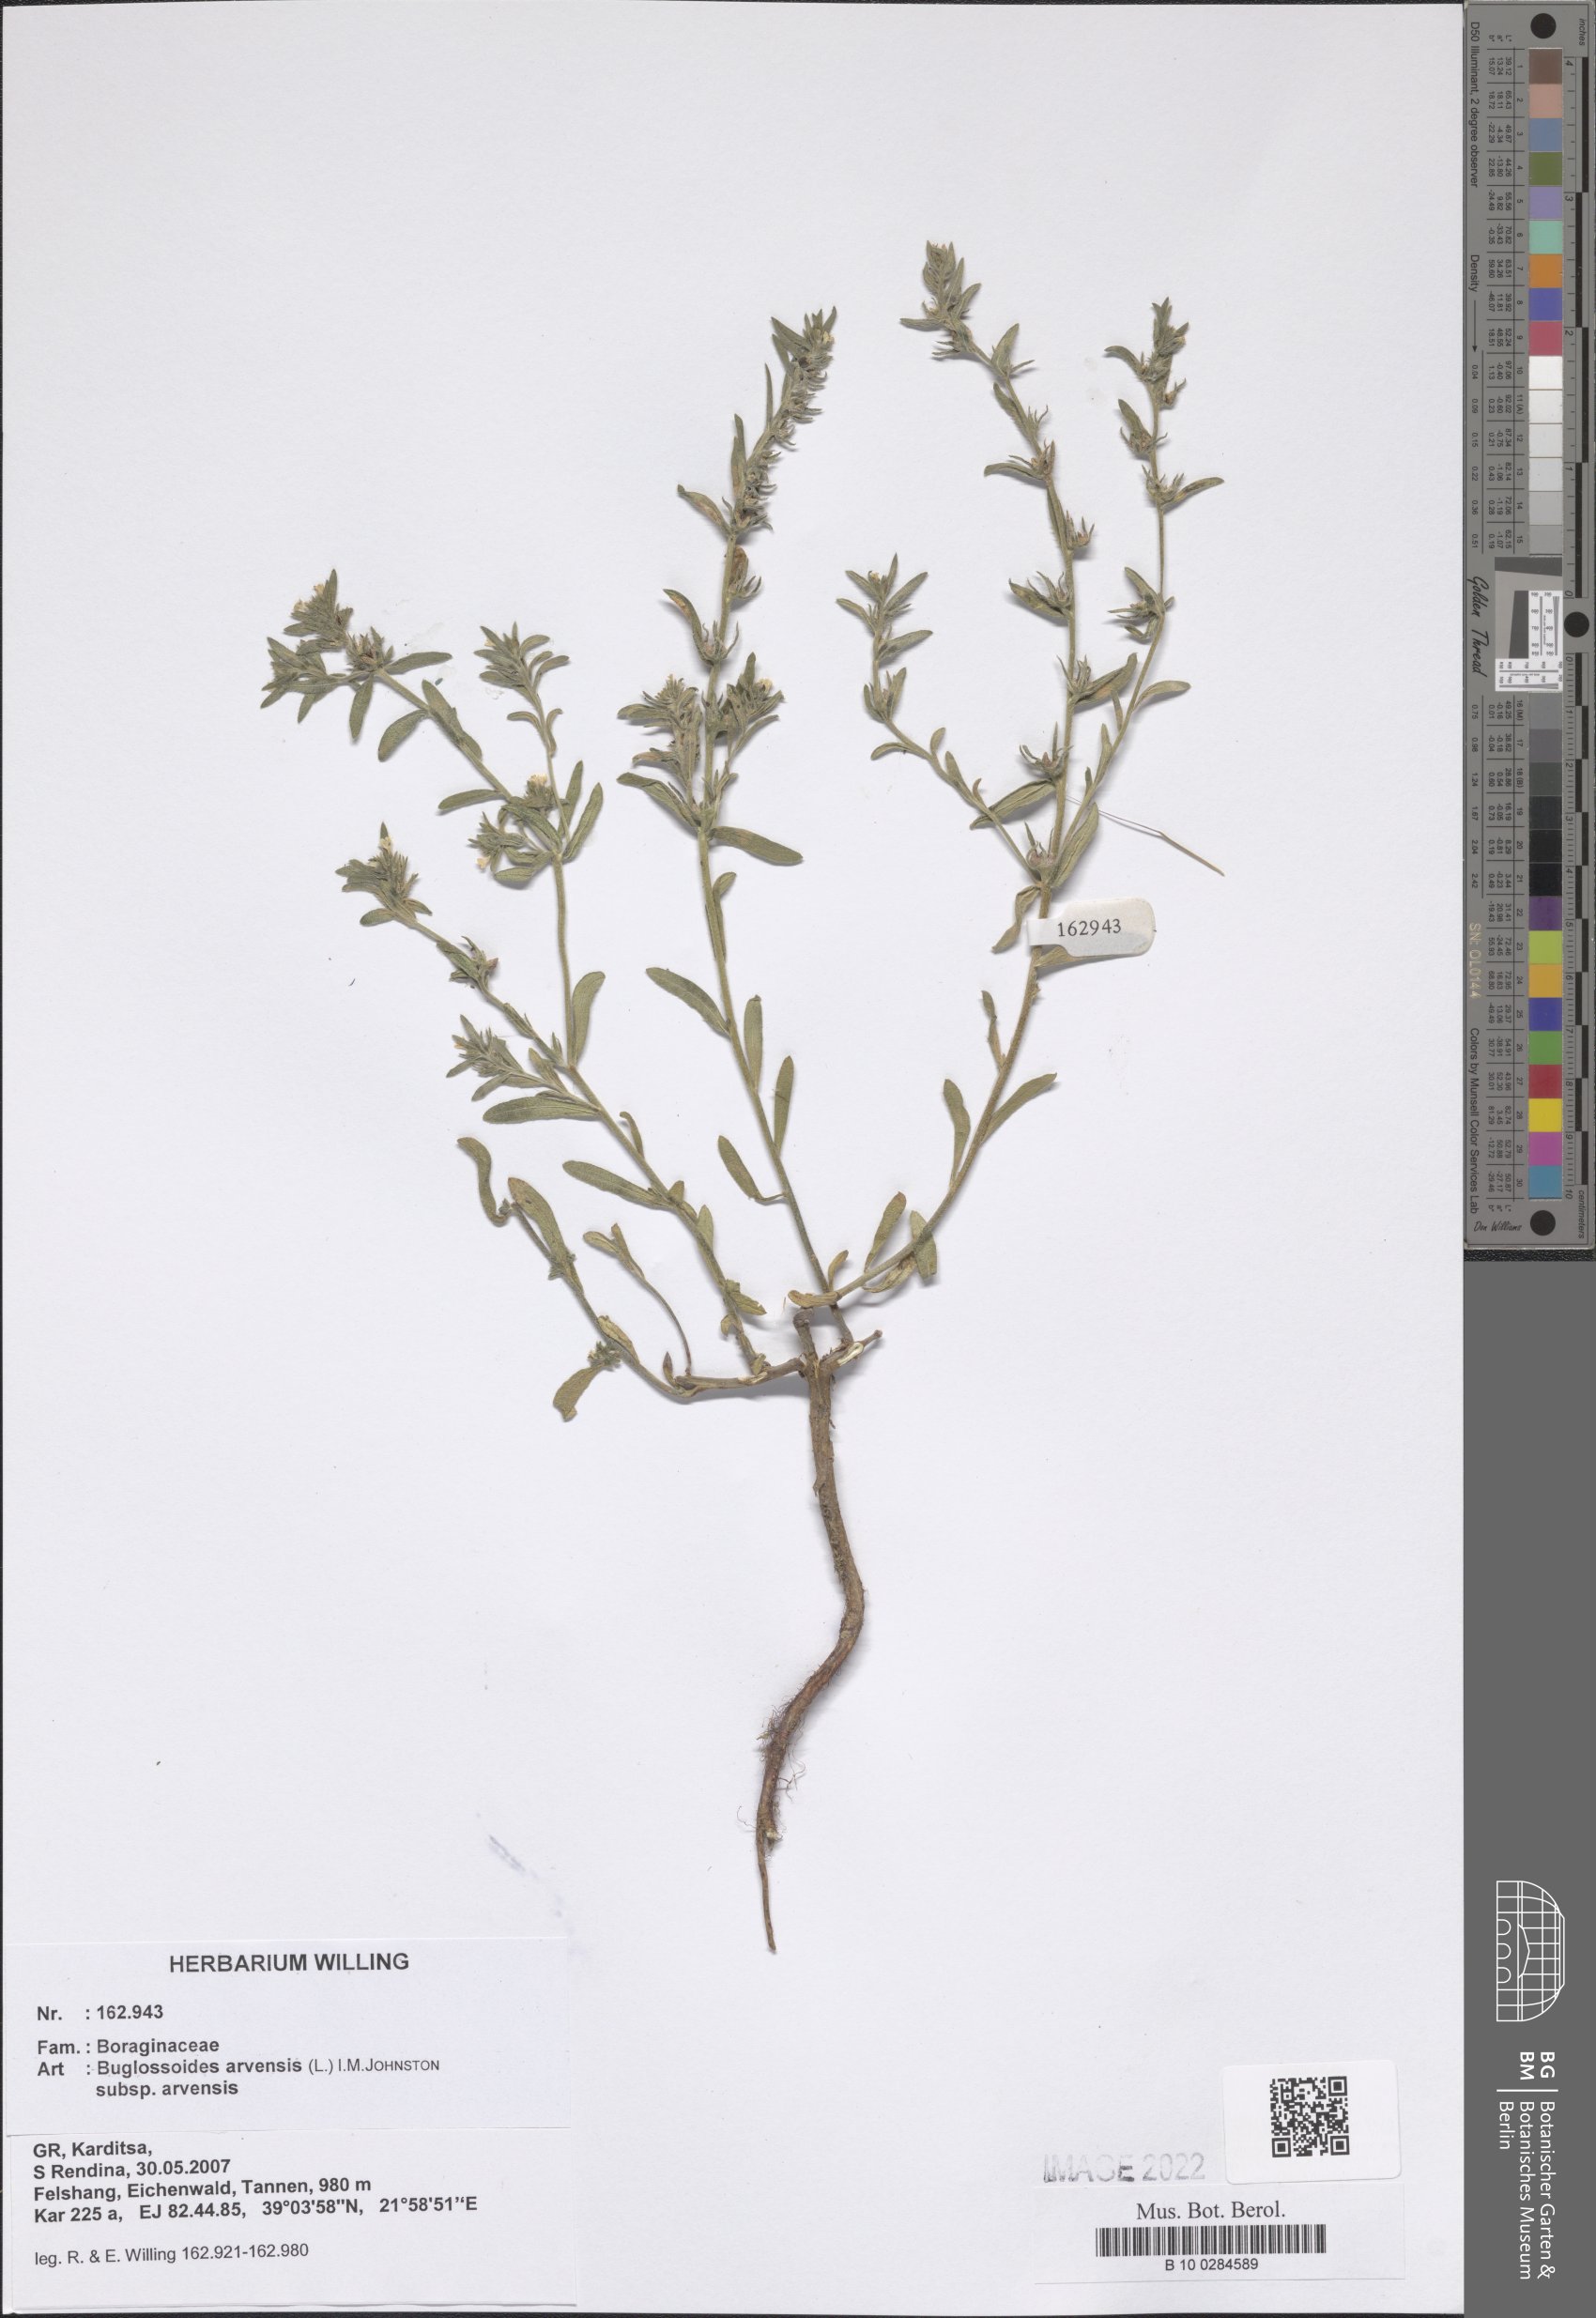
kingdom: Plantae
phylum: Tracheophyta
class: Magnoliopsida
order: Boraginales
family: Boraginaceae
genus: Buglossoides
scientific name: Buglossoides arvensis
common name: Corn gromwell
